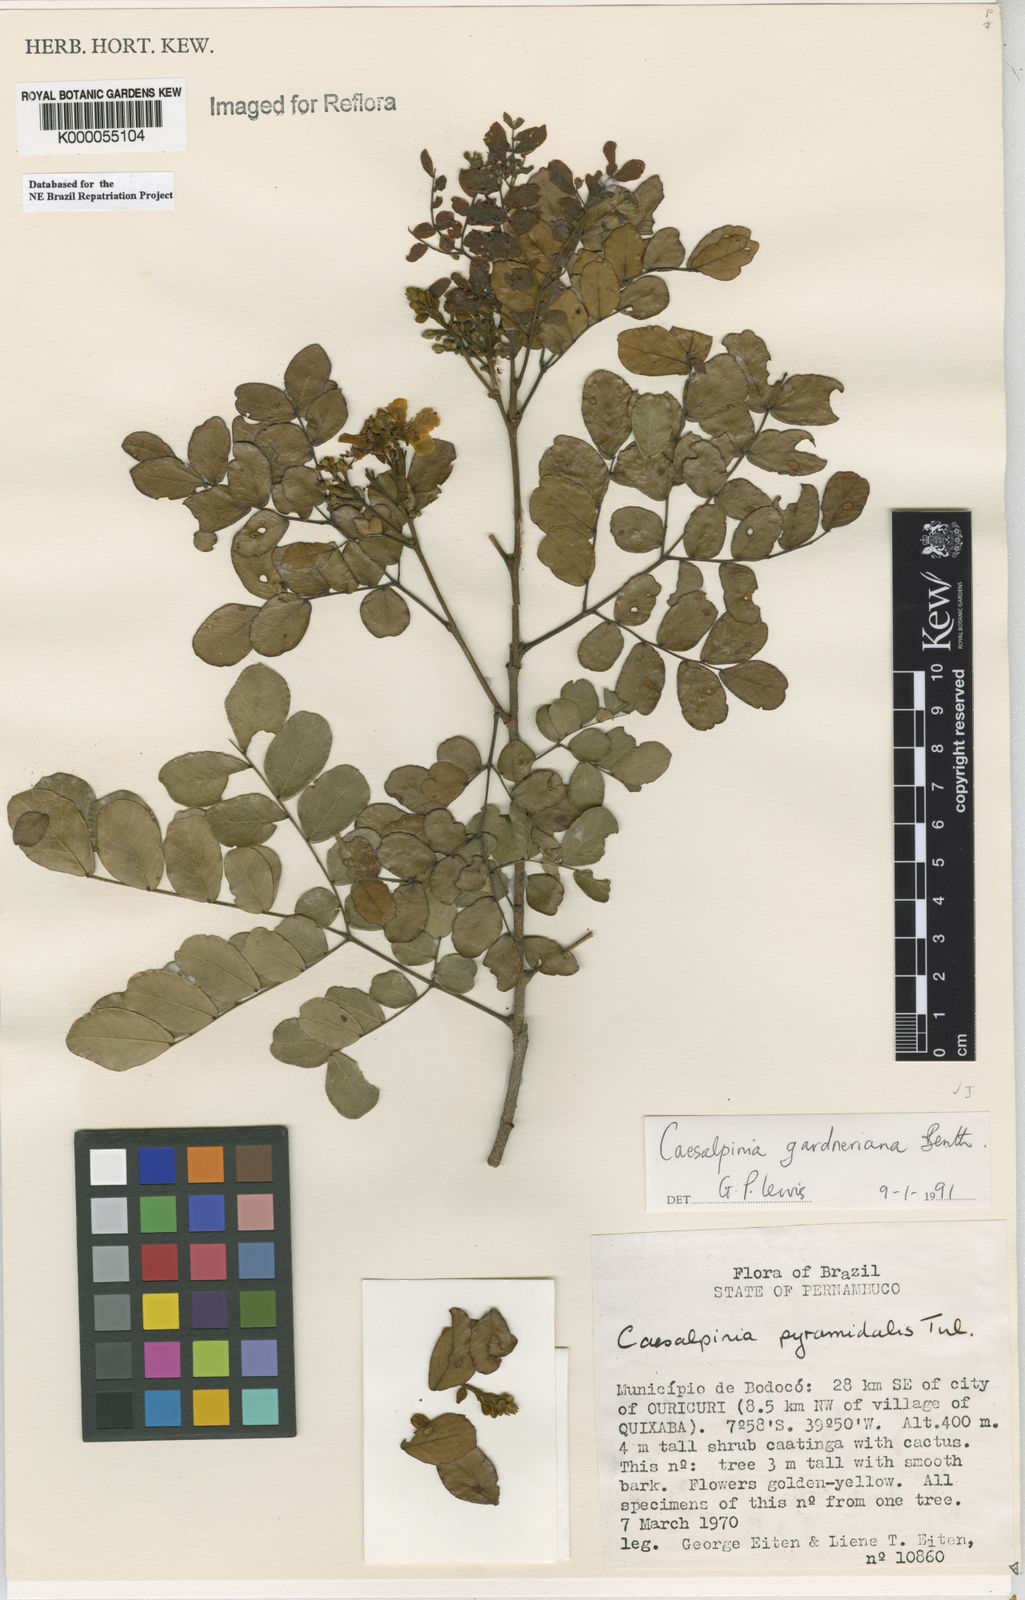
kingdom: Plantae
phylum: Tracheophyta
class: Magnoliopsida
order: Fabales
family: Fabaceae
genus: Libidibia
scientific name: Libidibia ferrea
